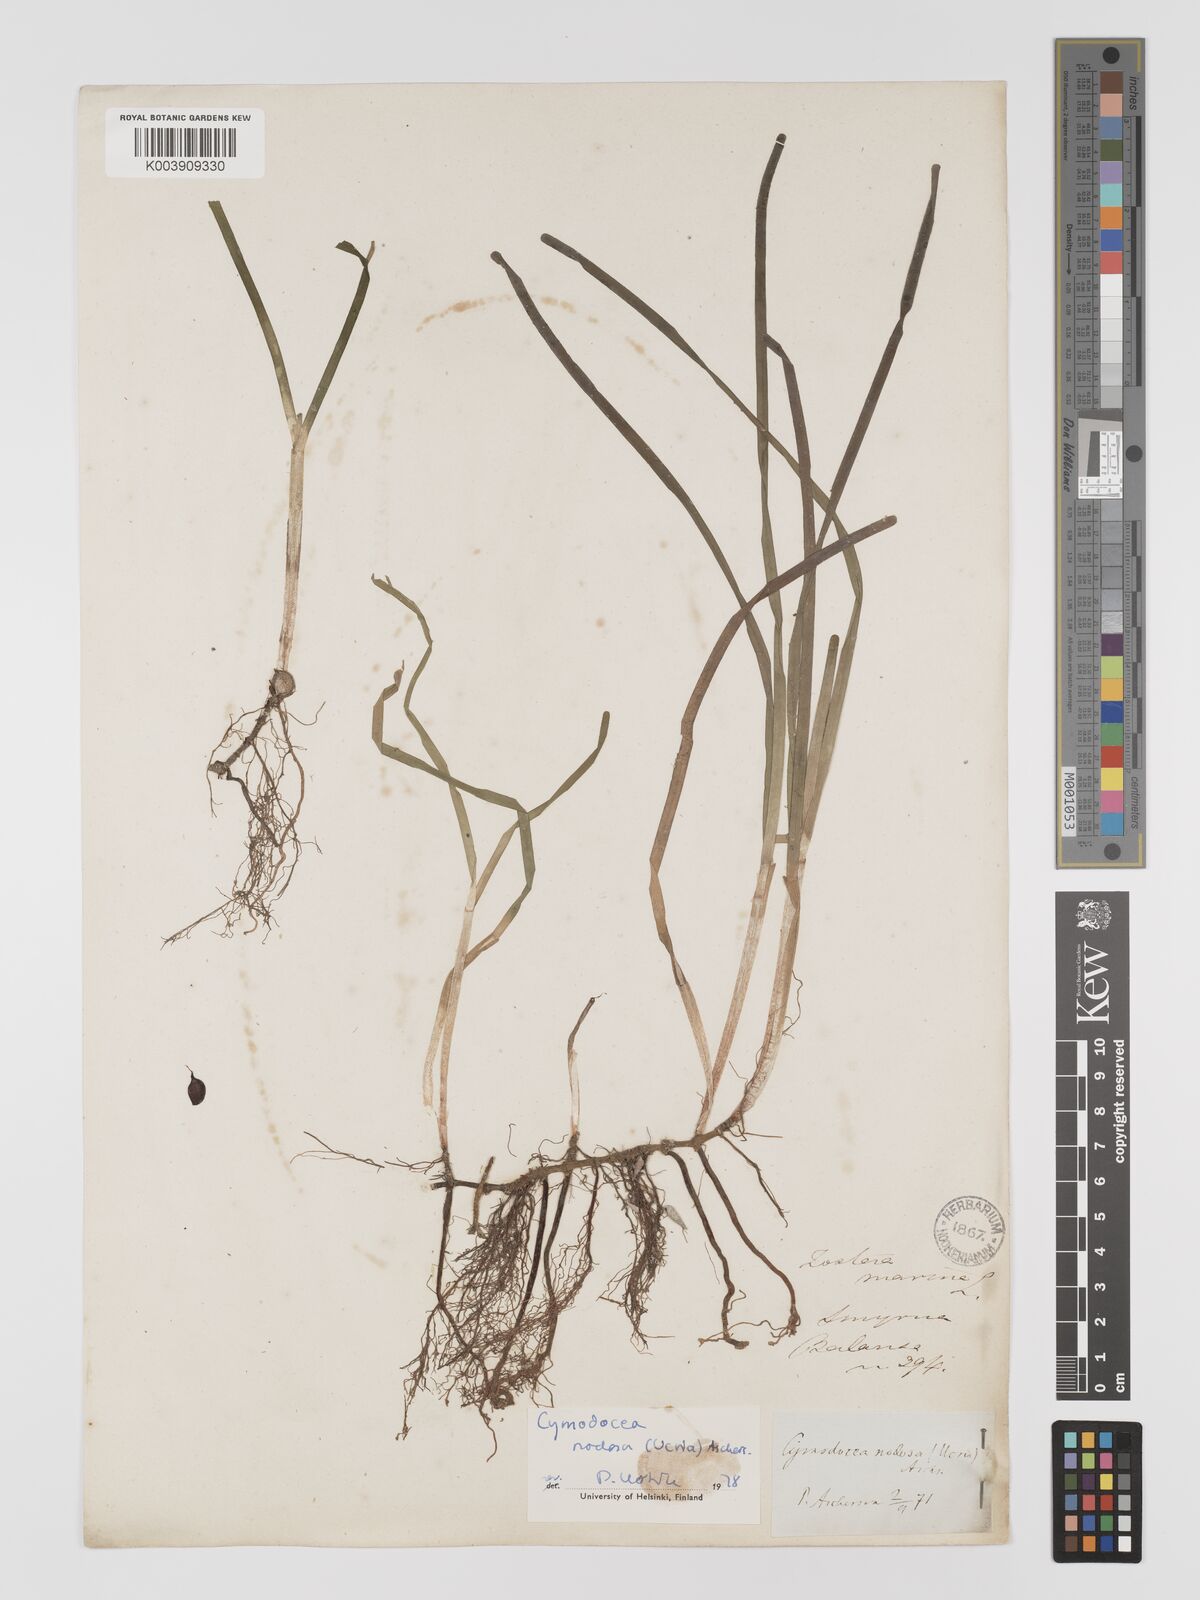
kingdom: Plantae
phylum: Tracheophyta
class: Liliopsida
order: Alismatales
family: Cymodoceaceae
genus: Cymodocea
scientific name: Cymodocea nodosa
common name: Slender seagrass
